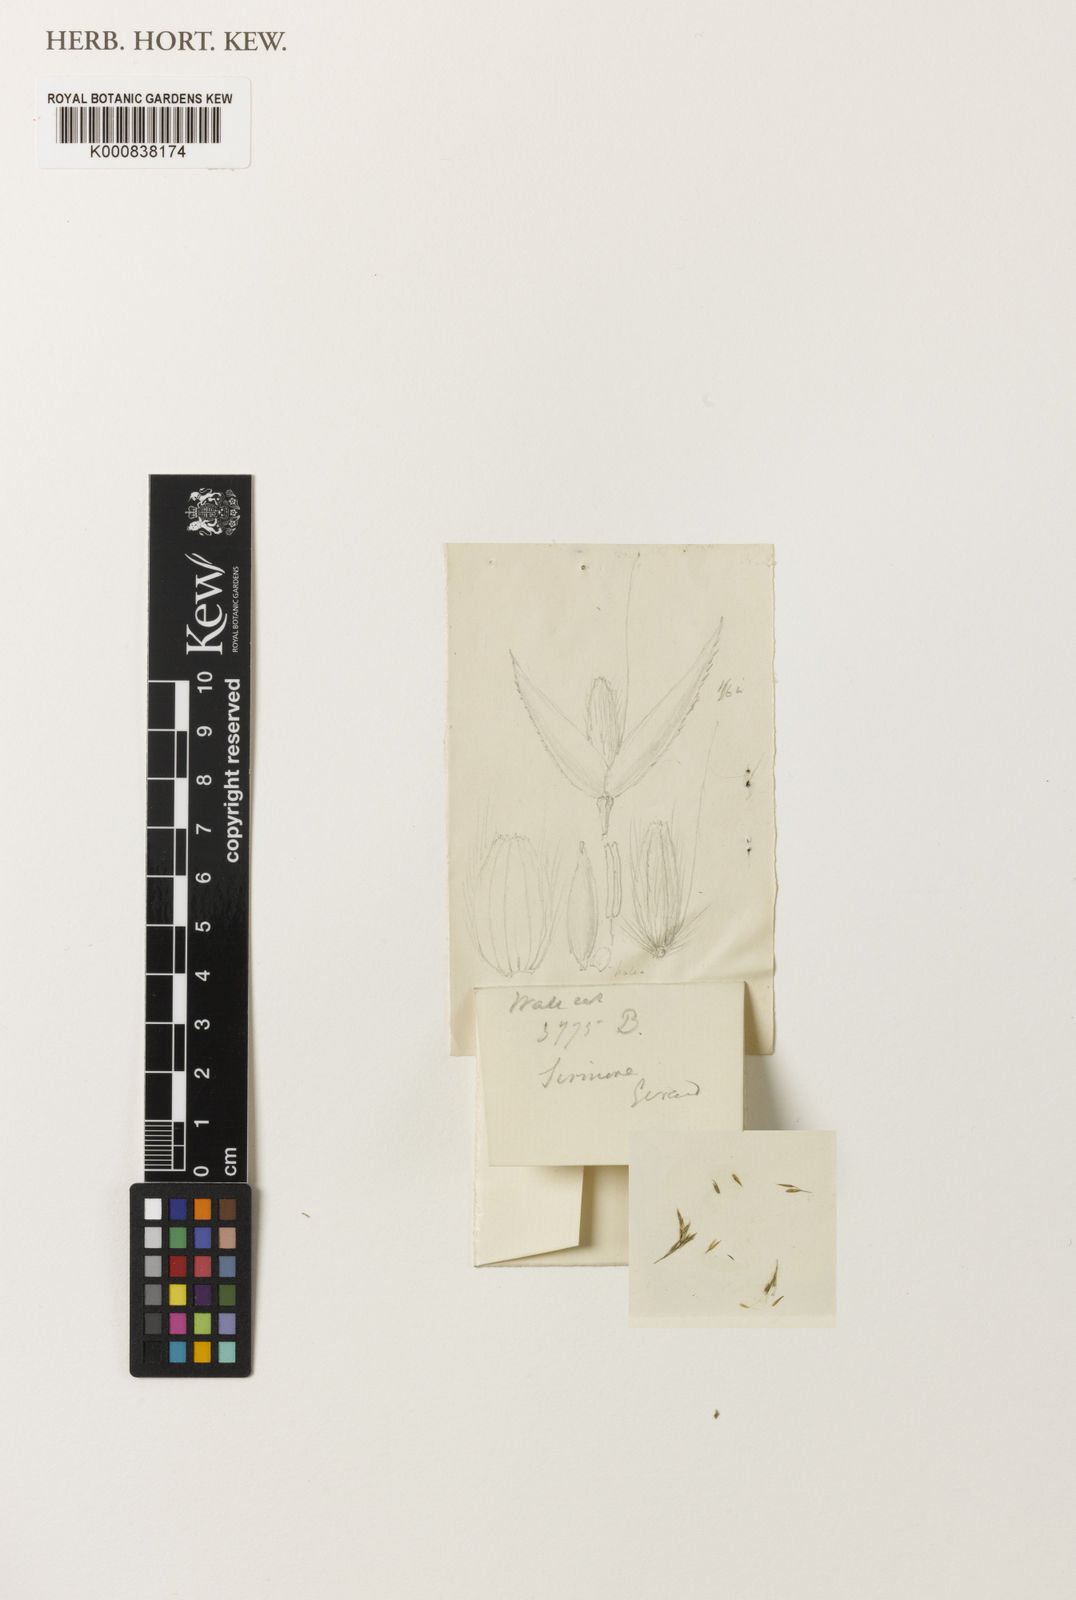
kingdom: Plantae
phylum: Tracheophyta
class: Liliopsida
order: Poales
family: Poaceae
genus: Agrostis
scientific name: Agrostis pilosula
